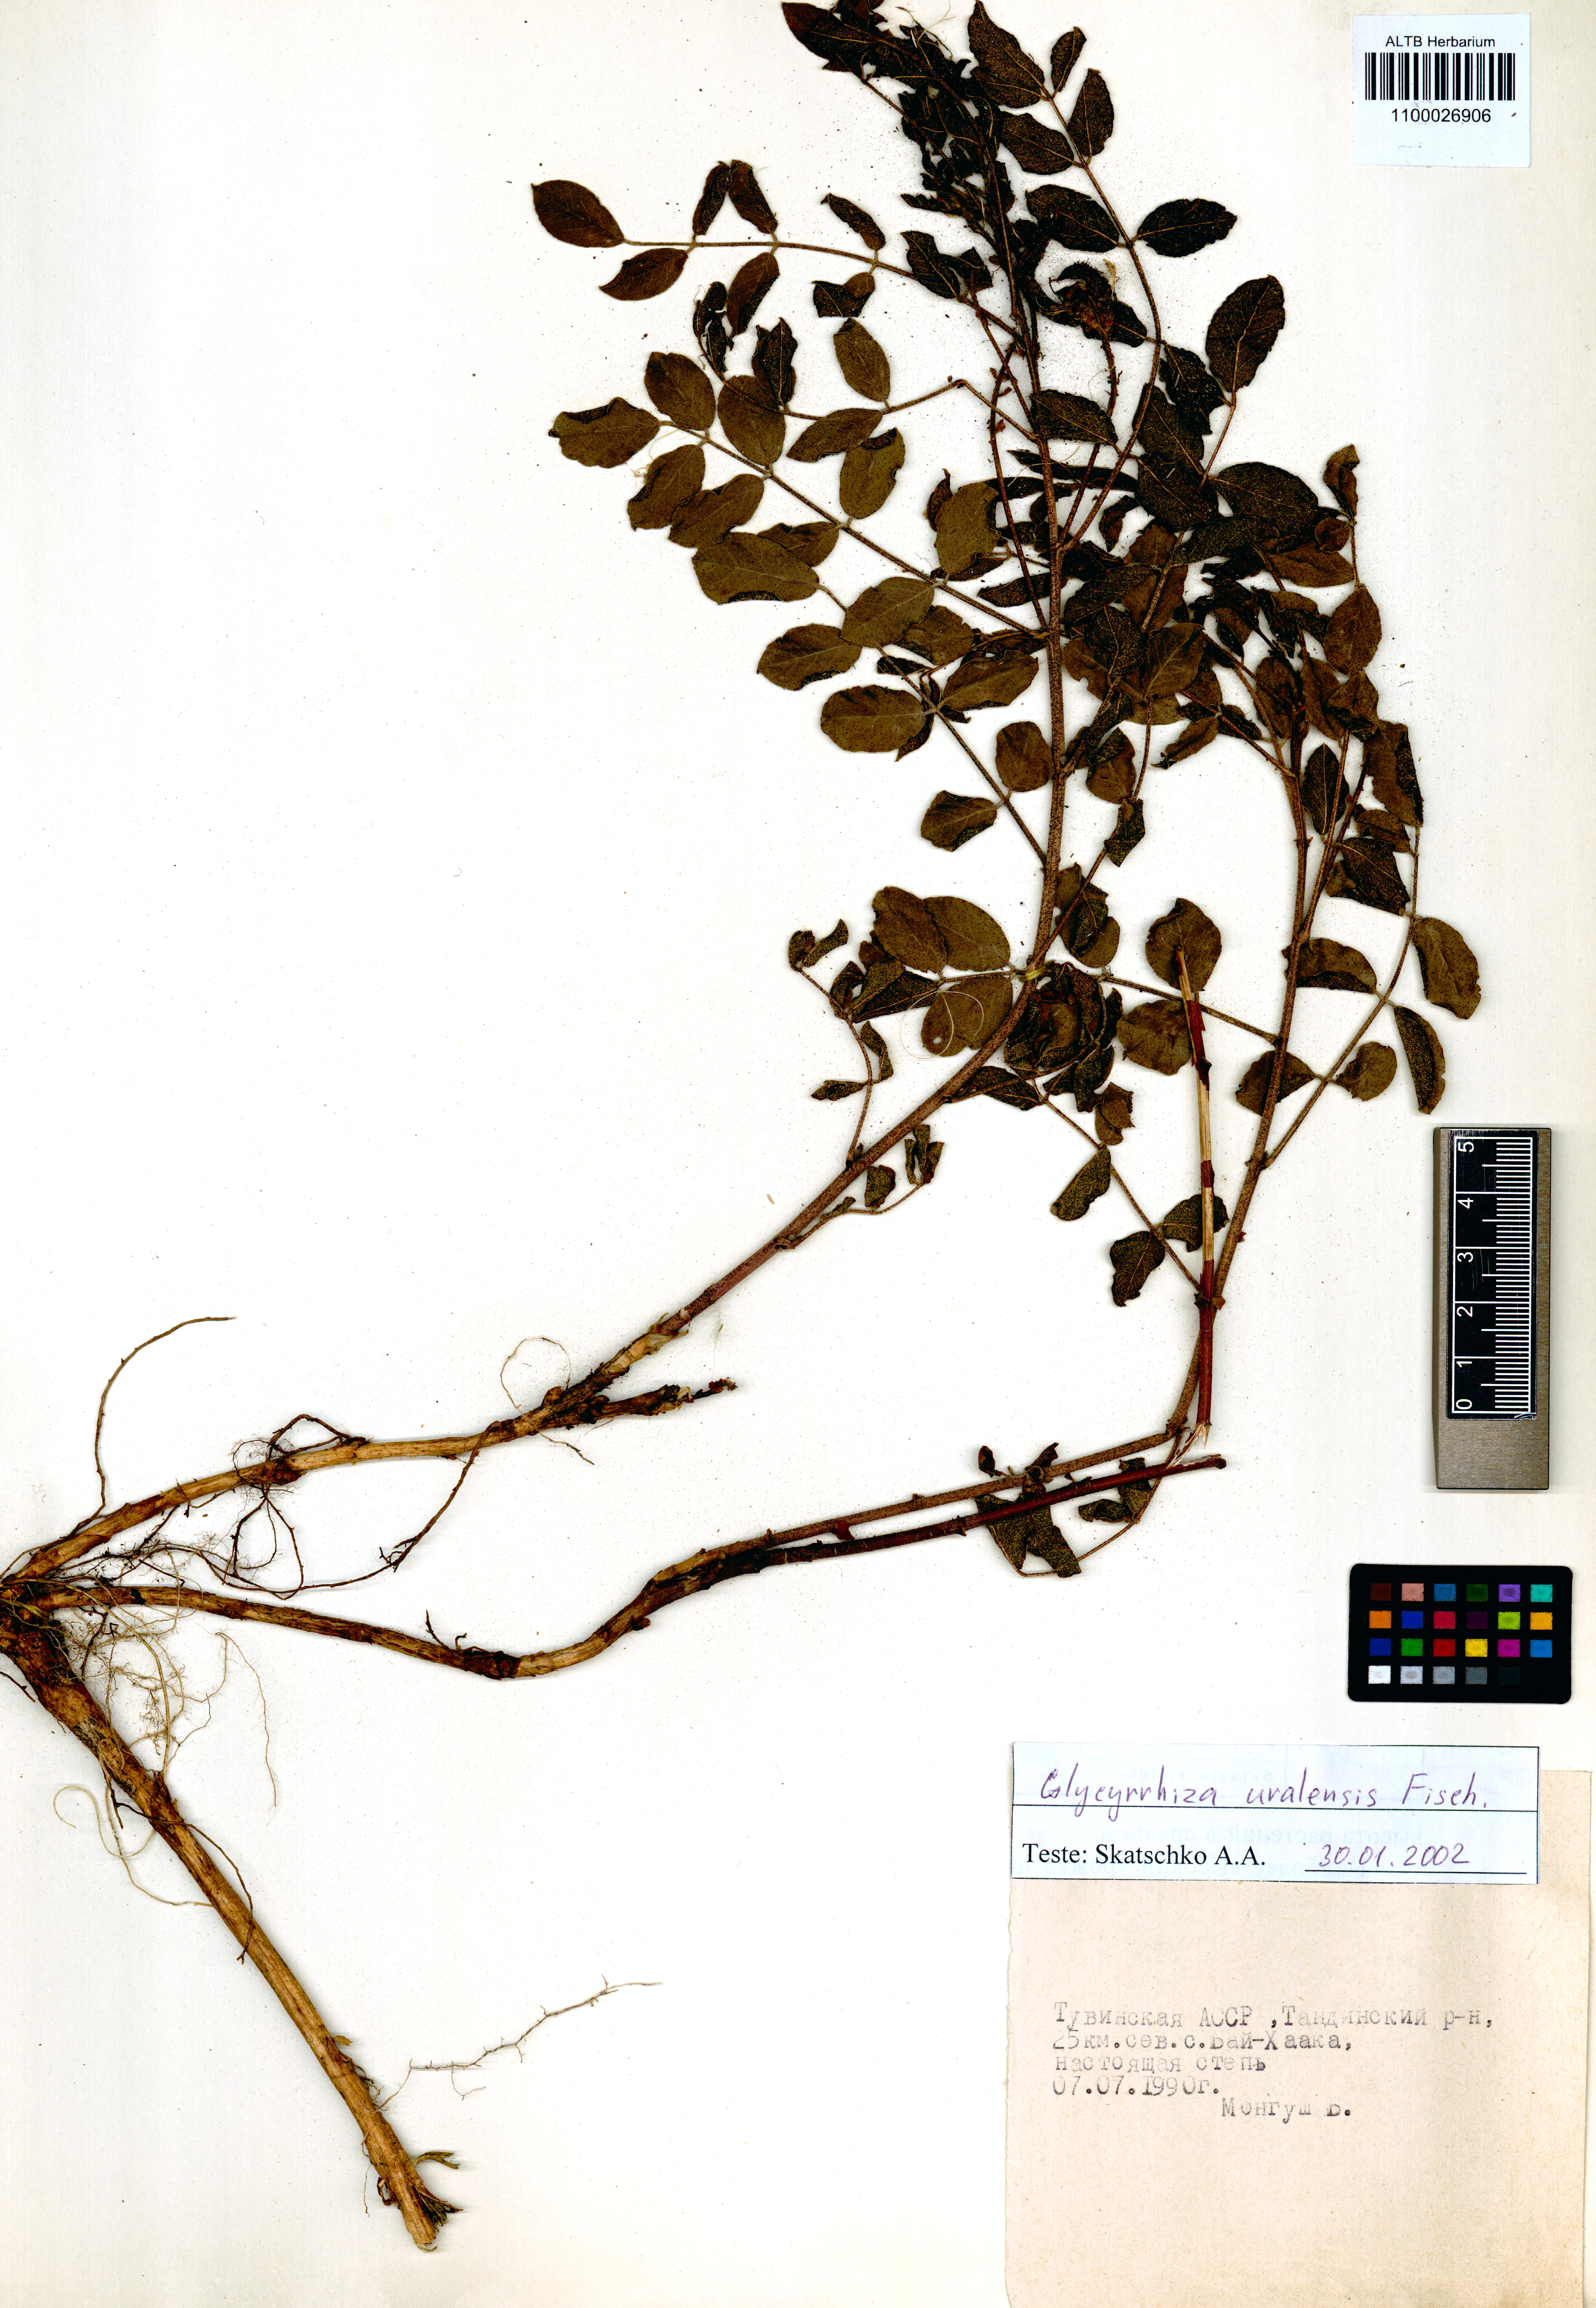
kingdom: Plantae
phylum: Tracheophyta
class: Magnoliopsida
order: Fabales
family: Fabaceae
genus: Glycyrrhiza
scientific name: Glycyrrhiza uralensis
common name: Chinese licorice
